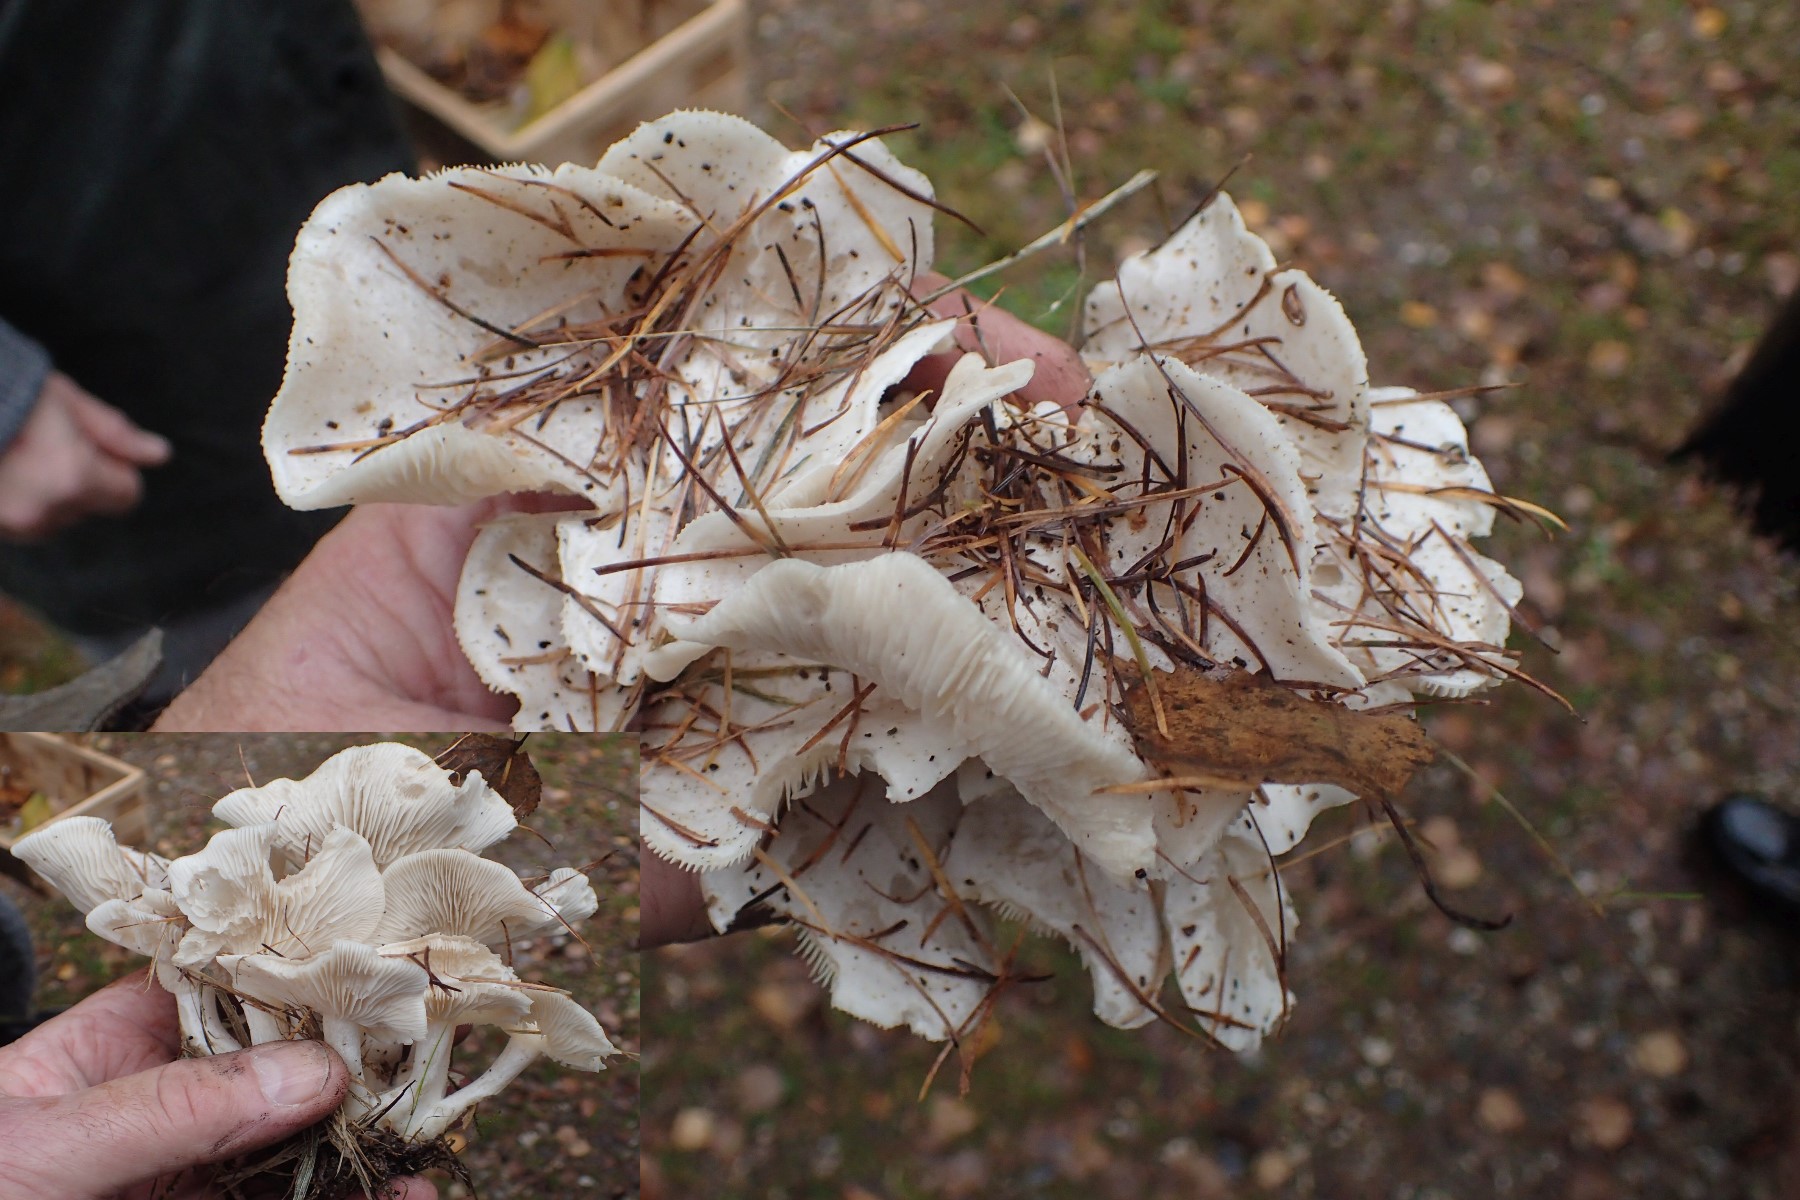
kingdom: Fungi
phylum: Basidiomycota
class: Agaricomycetes
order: Agaricales
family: Tricholomataceae
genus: Leucocybe
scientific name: Leucocybe connata
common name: knippe-tragthat
